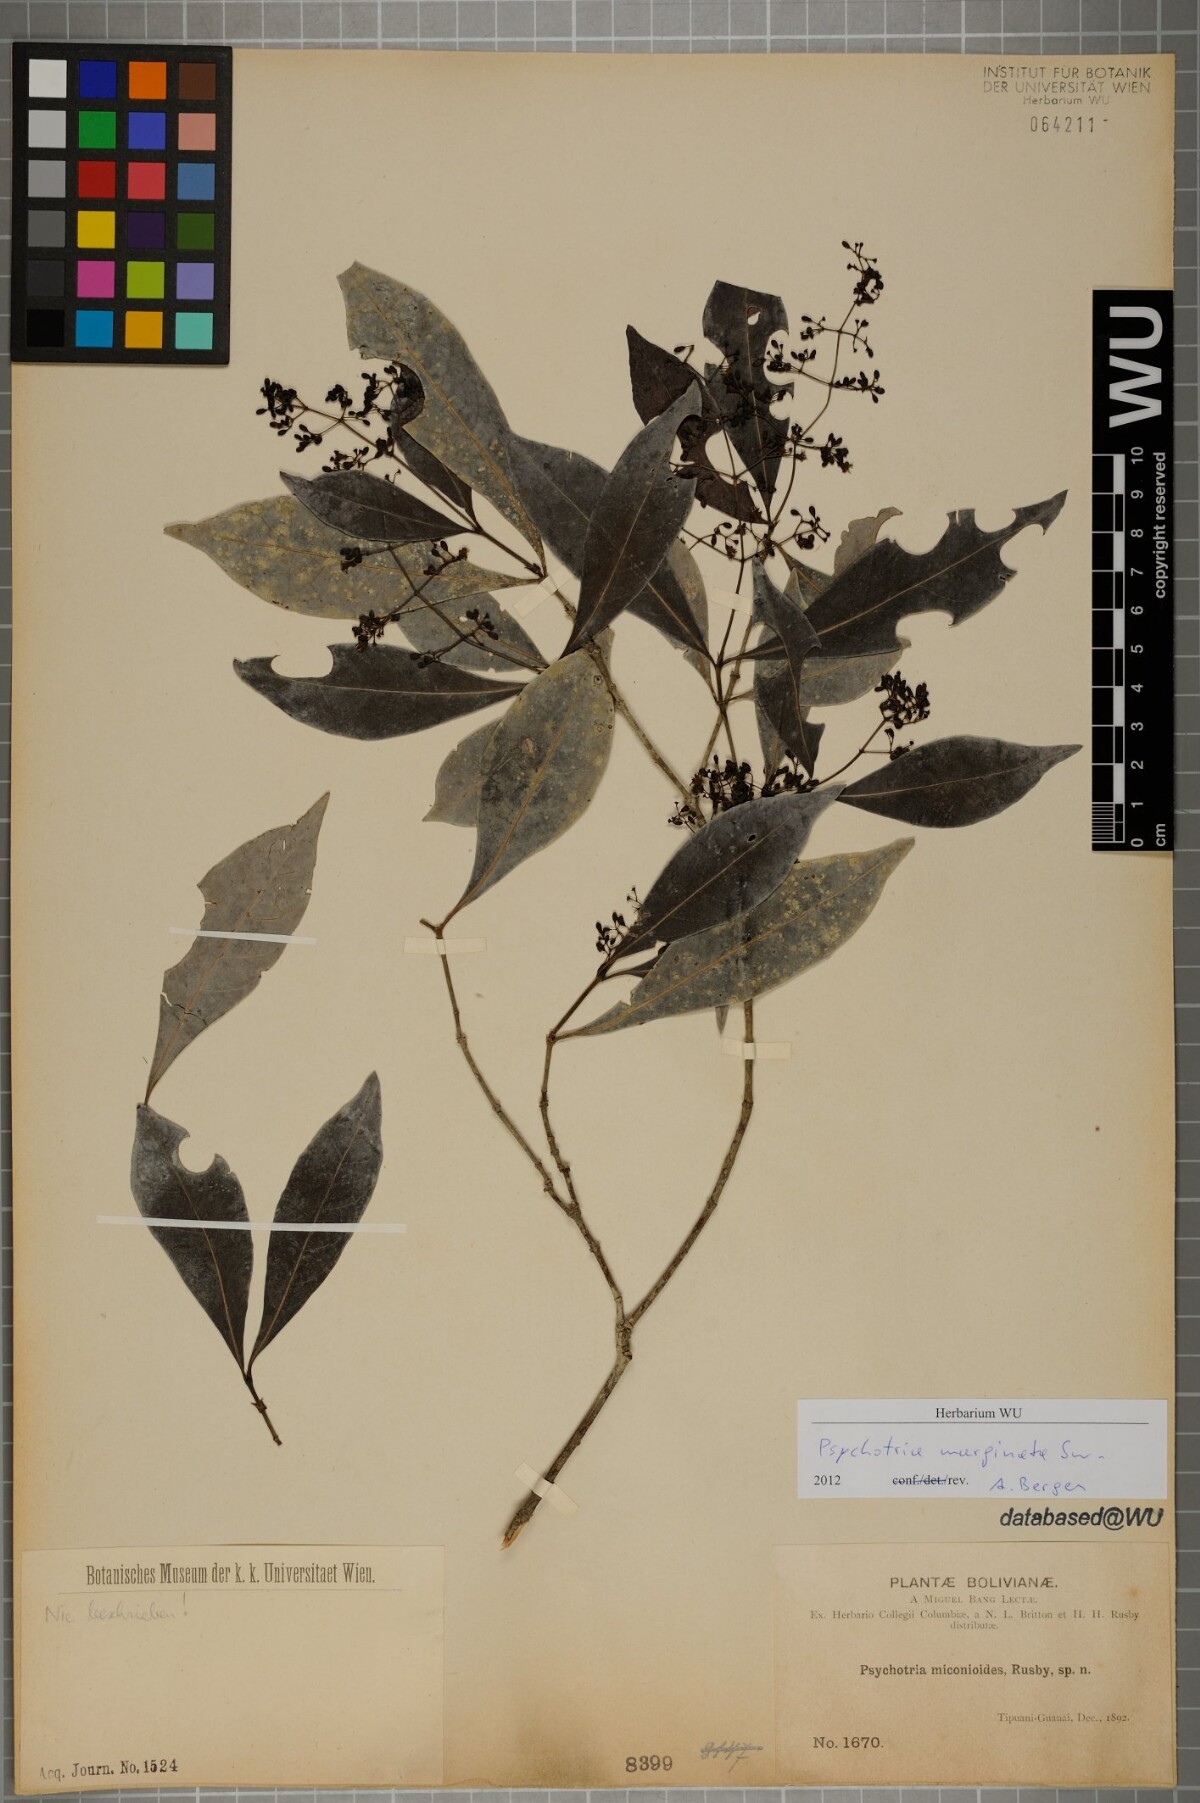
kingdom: Plantae
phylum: Tracheophyta
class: Magnoliopsida
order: Gentianales
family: Rubiaceae
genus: Psychotria
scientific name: Psychotria
